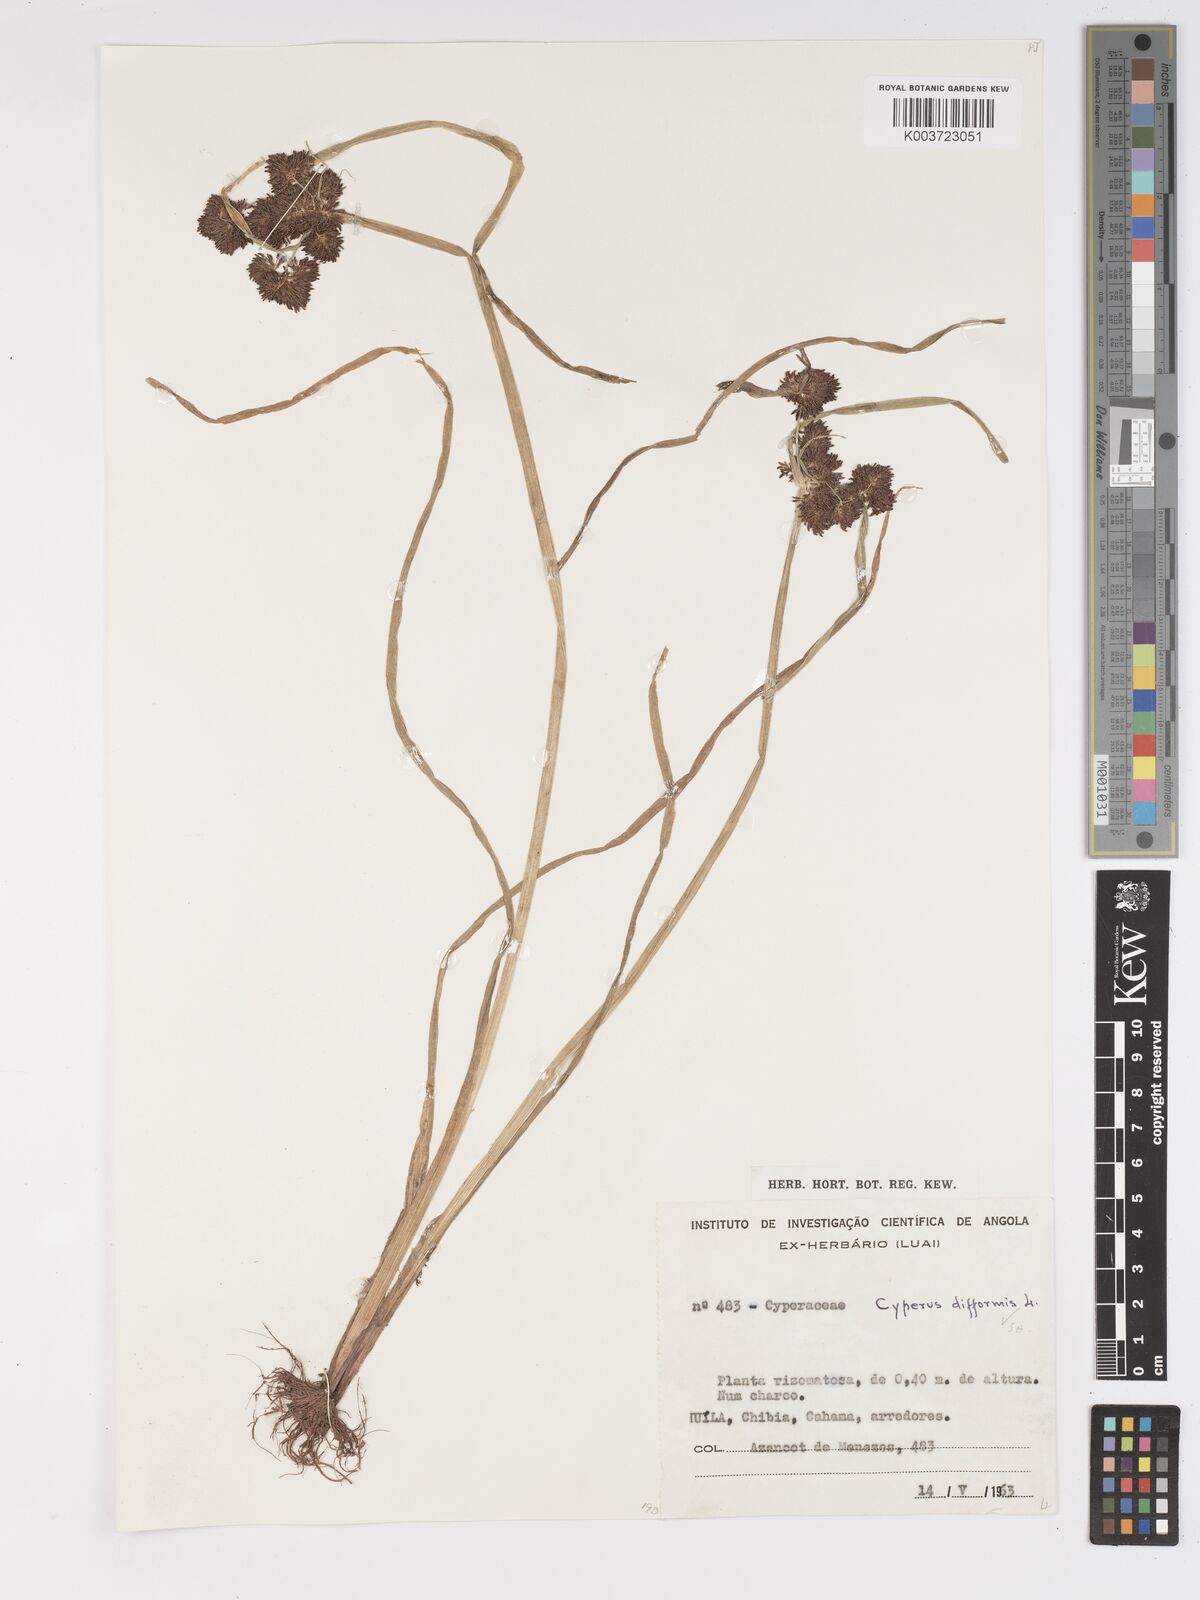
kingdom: Plantae
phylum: Tracheophyta
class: Liliopsida
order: Poales
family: Cyperaceae
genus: Cyperus
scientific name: Cyperus difformis
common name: Variable flatsedge
